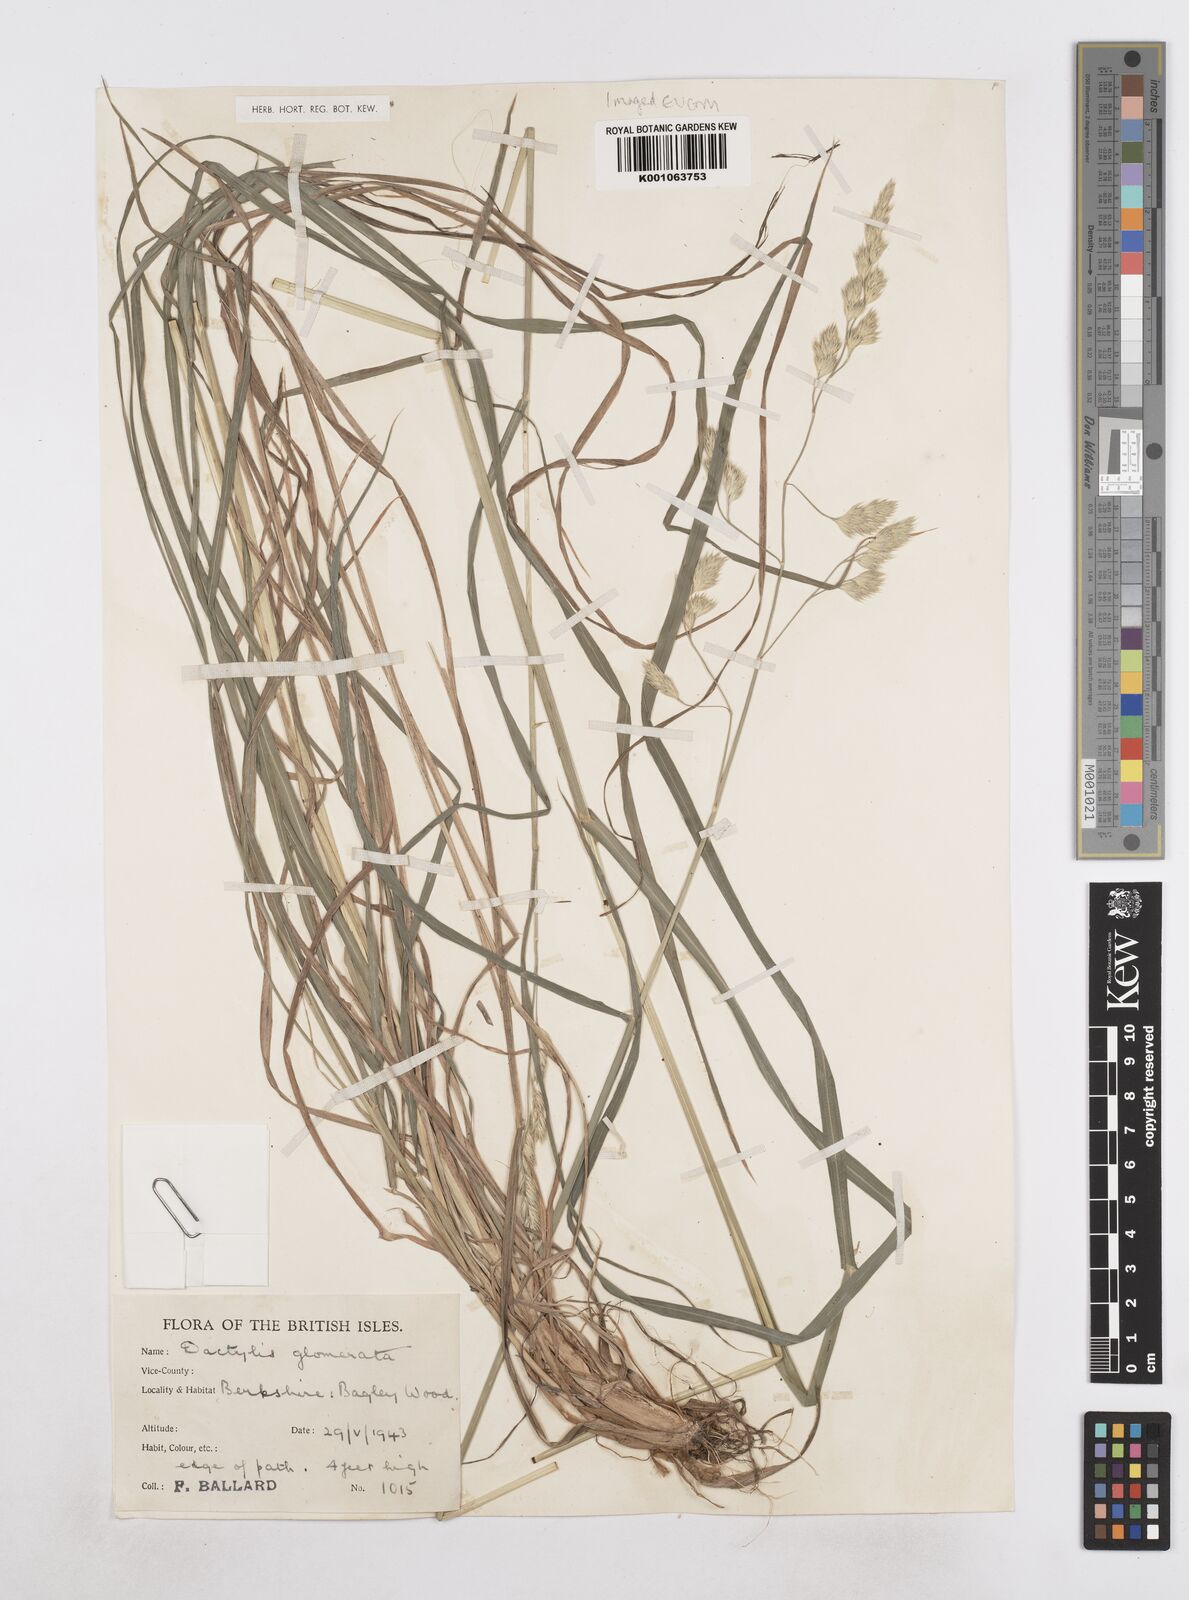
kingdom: Plantae
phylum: Tracheophyta
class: Liliopsida
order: Poales
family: Poaceae
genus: Dactylis
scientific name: Dactylis glomerata
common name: Orchardgrass
